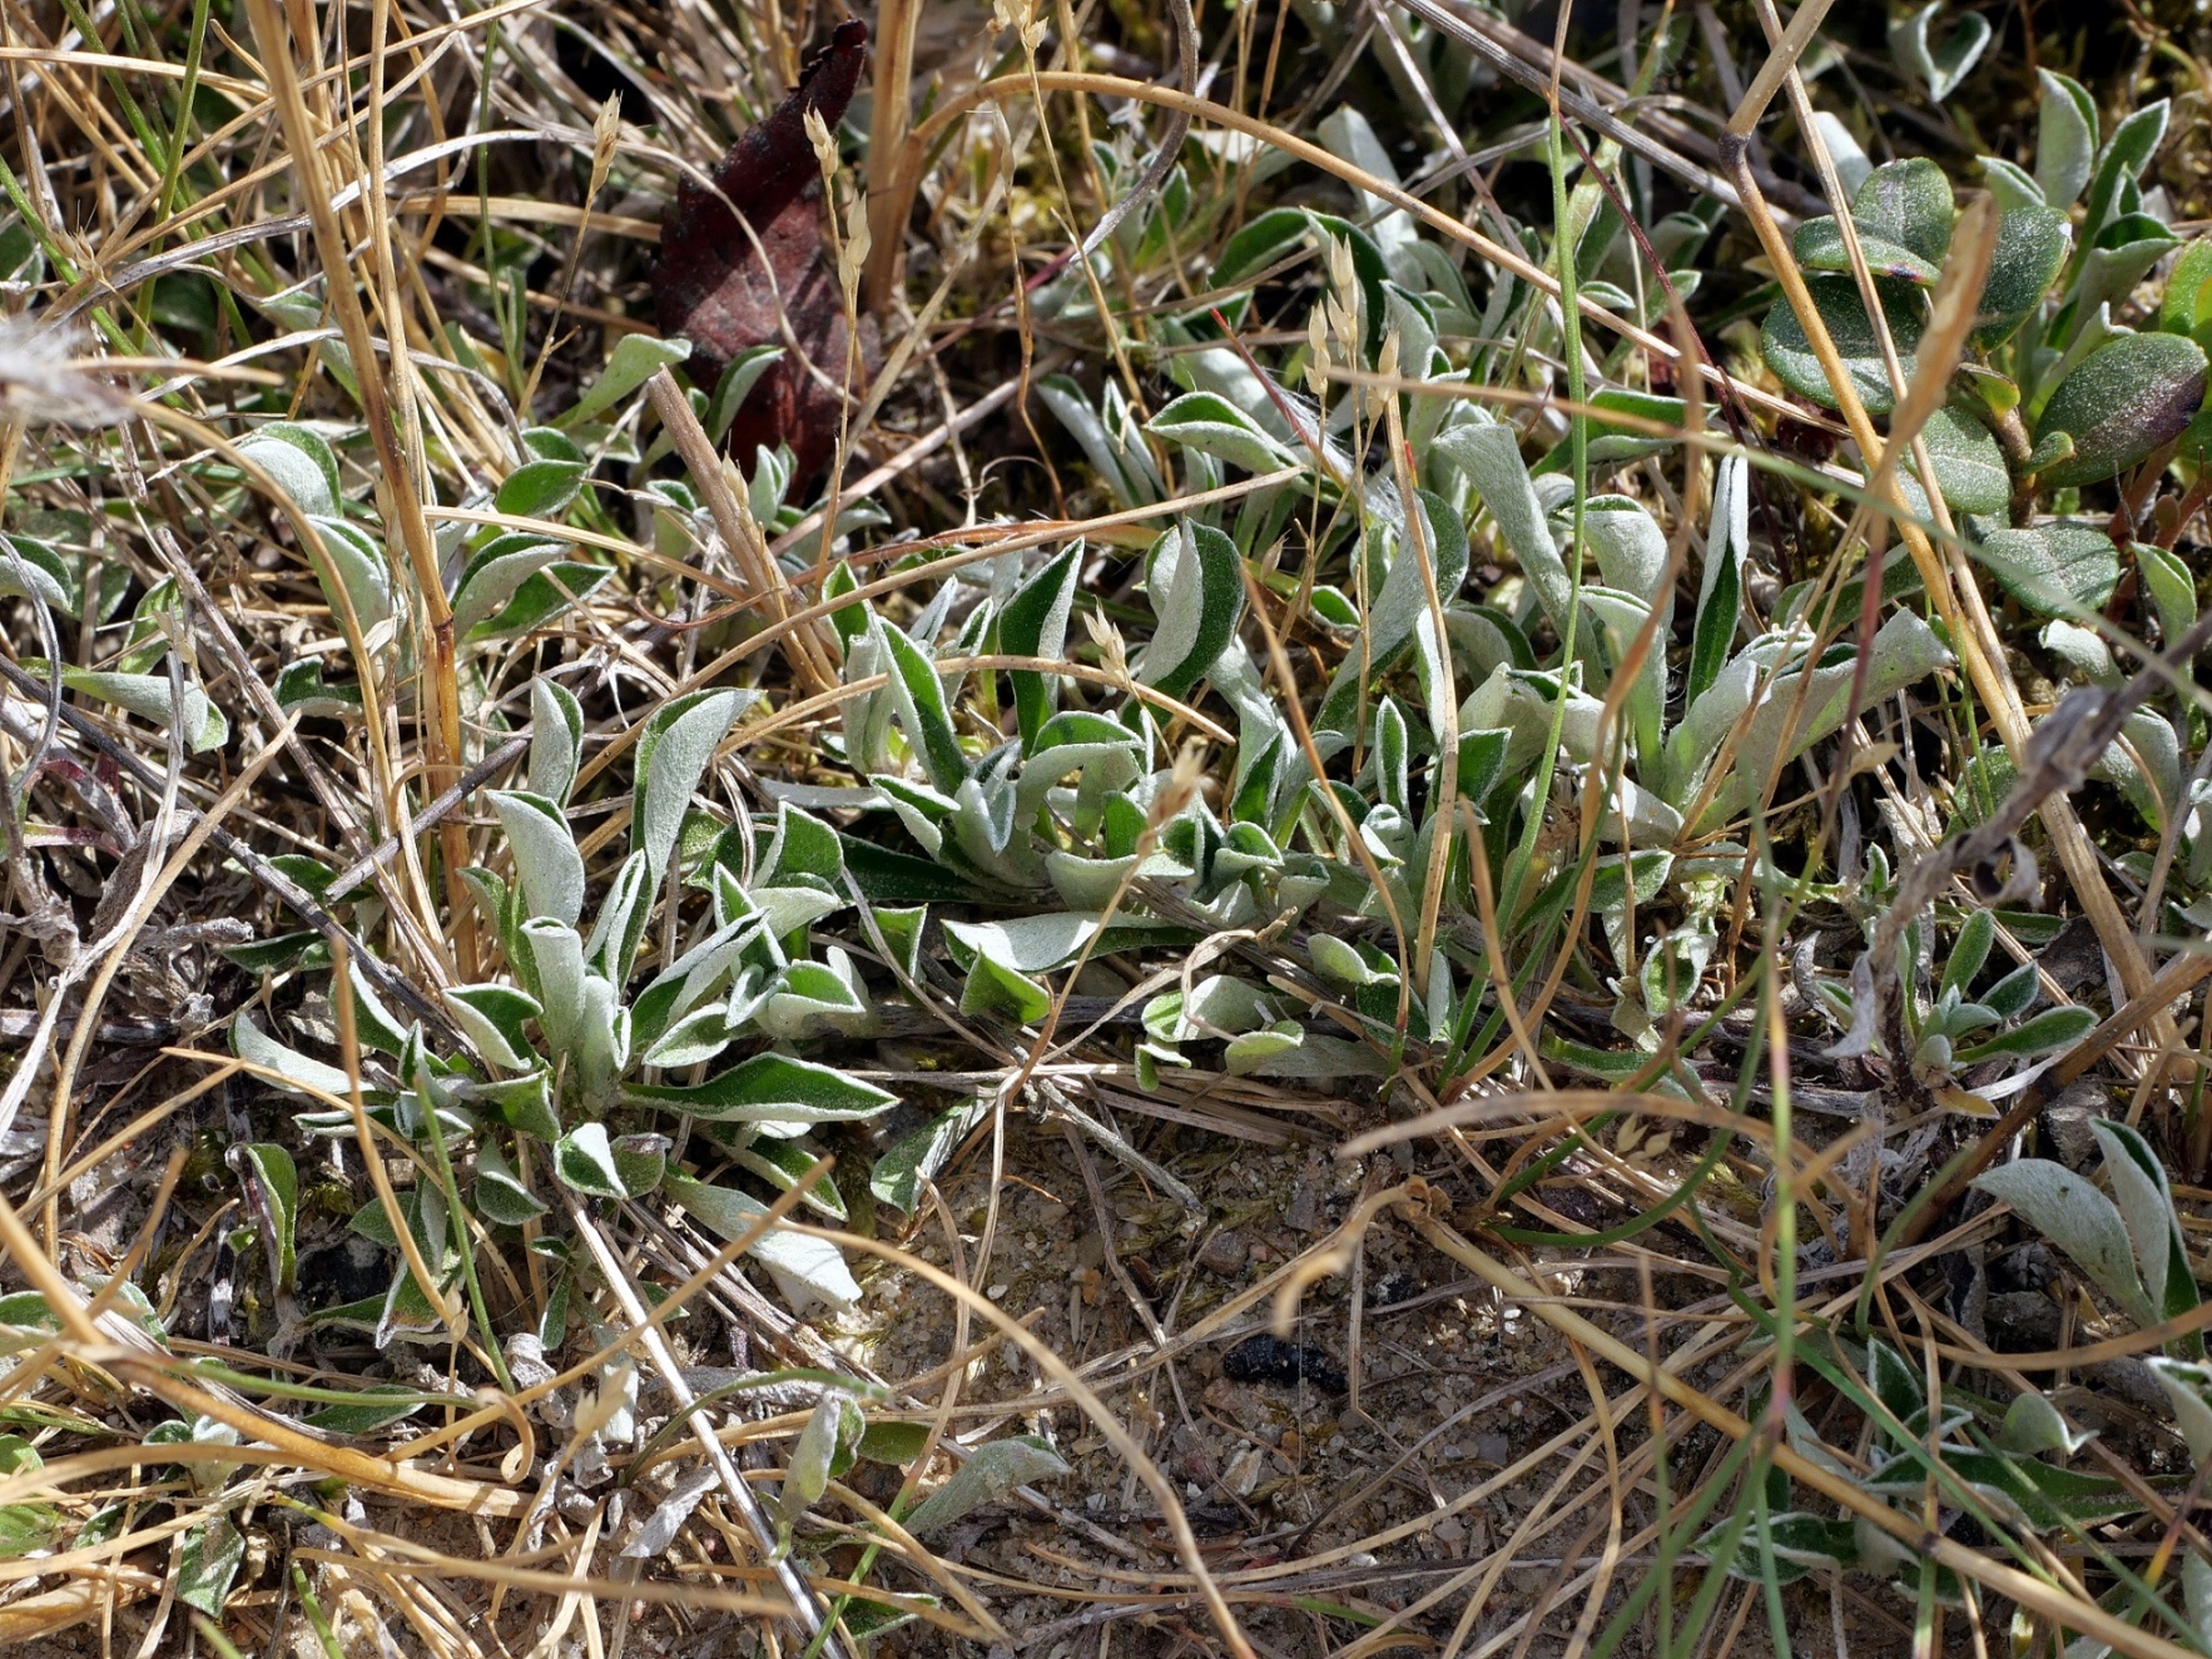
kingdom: Plantae
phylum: Tracheophyta
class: Magnoliopsida
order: Asterales
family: Asteraceae
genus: Antennaria
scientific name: Antennaria dioica
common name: Kattefod
